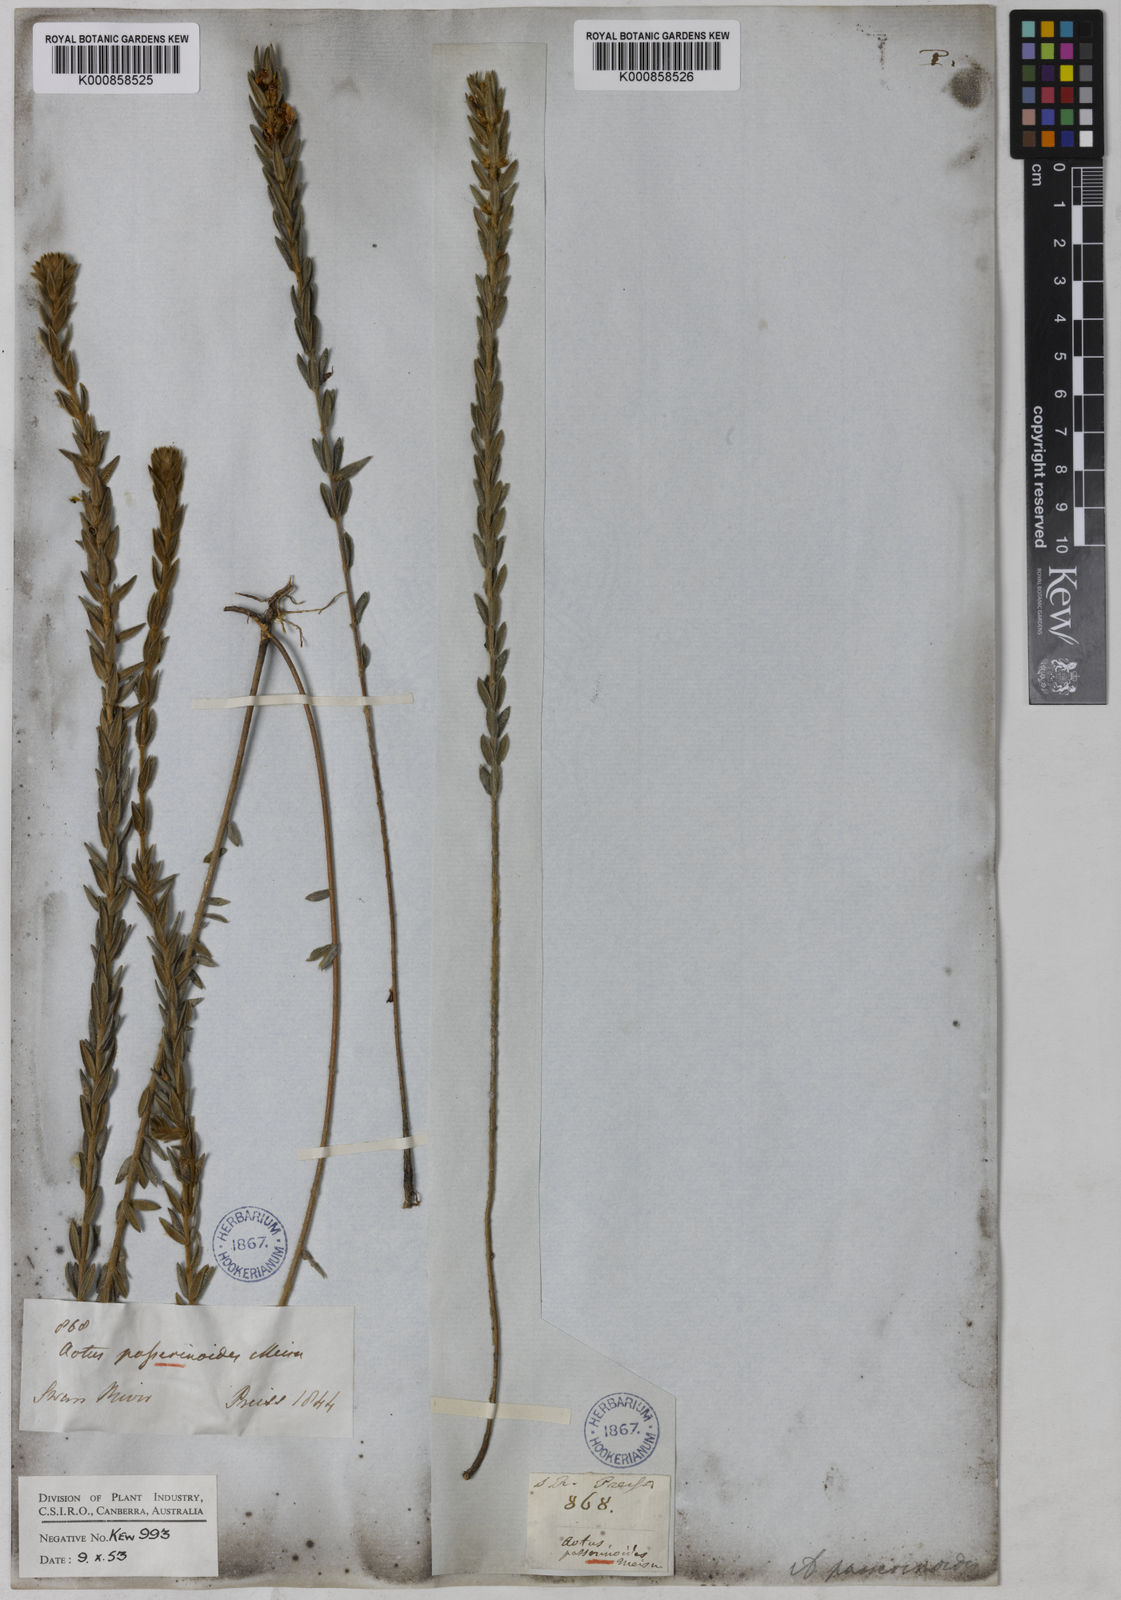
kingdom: Plantae
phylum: Tracheophyta
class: Magnoliopsida
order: Fabales
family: Fabaceae
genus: Aotus
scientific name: Aotus passerinoides
